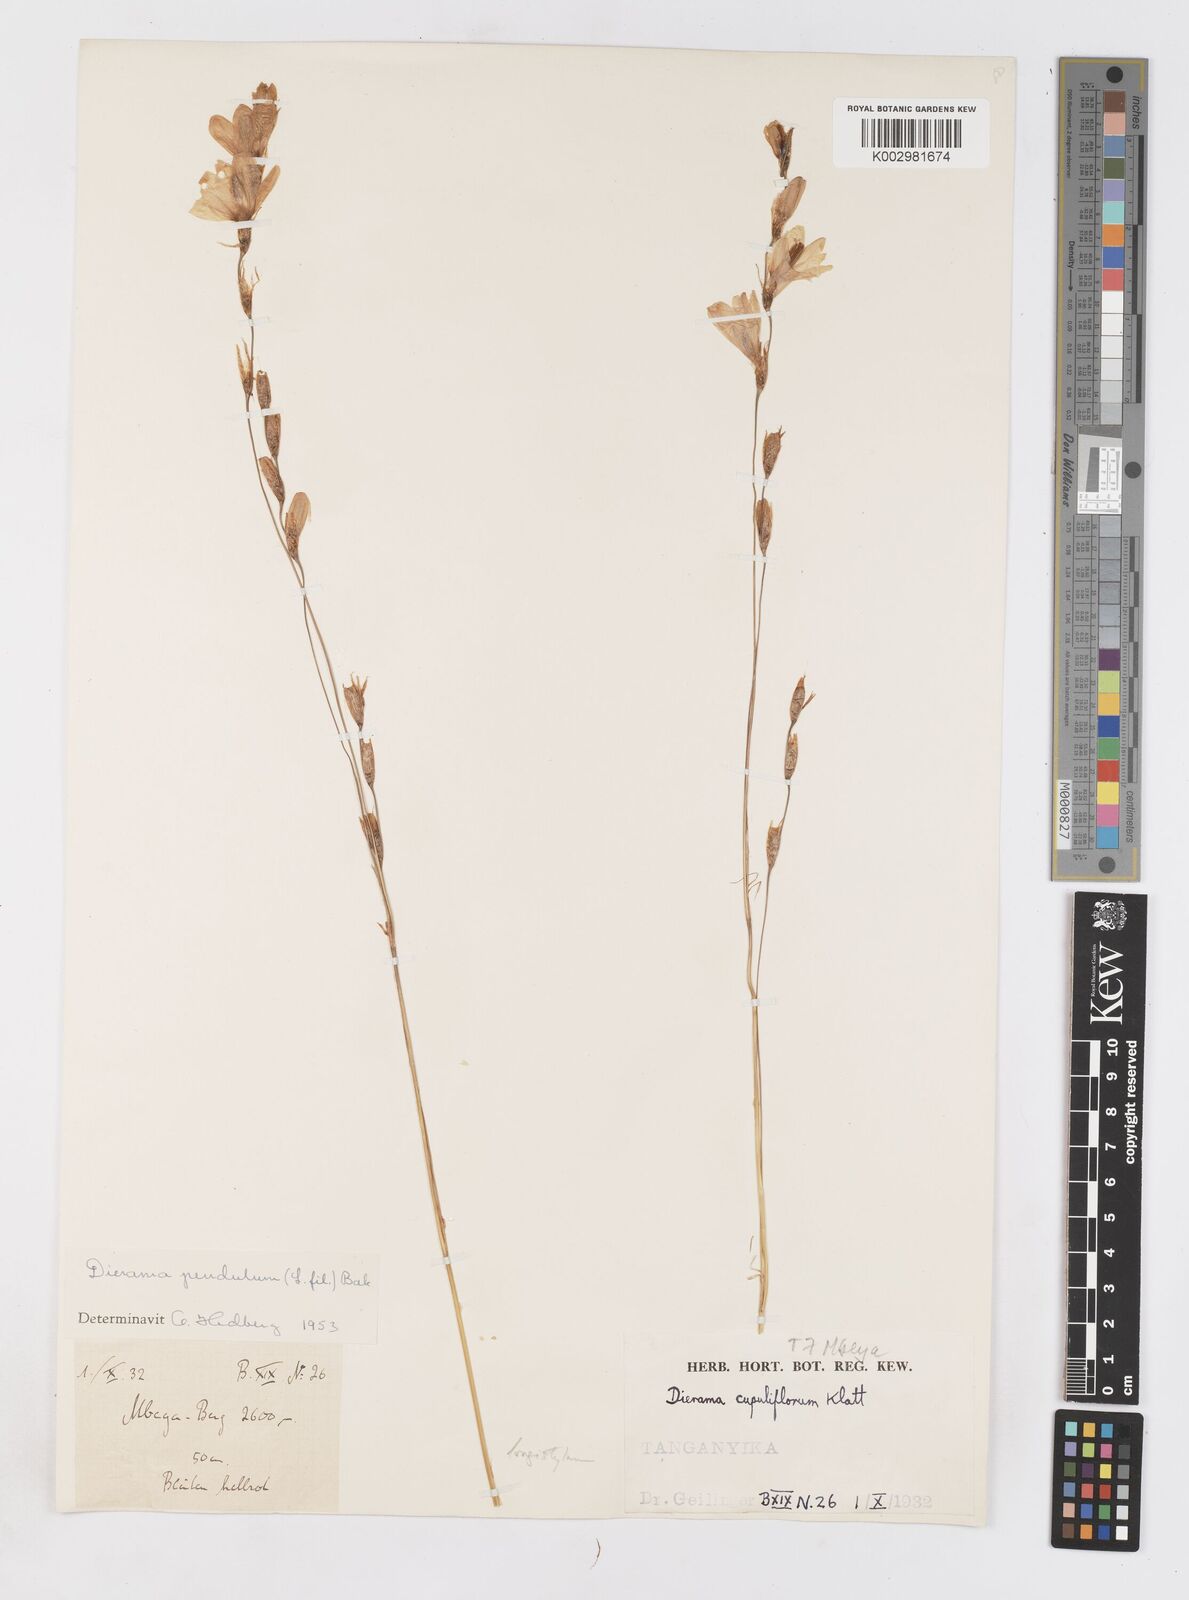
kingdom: Plantae
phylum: Tracheophyta
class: Liliopsida
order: Asparagales
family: Iridaceae
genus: Dierama
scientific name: Dierama longistylum
